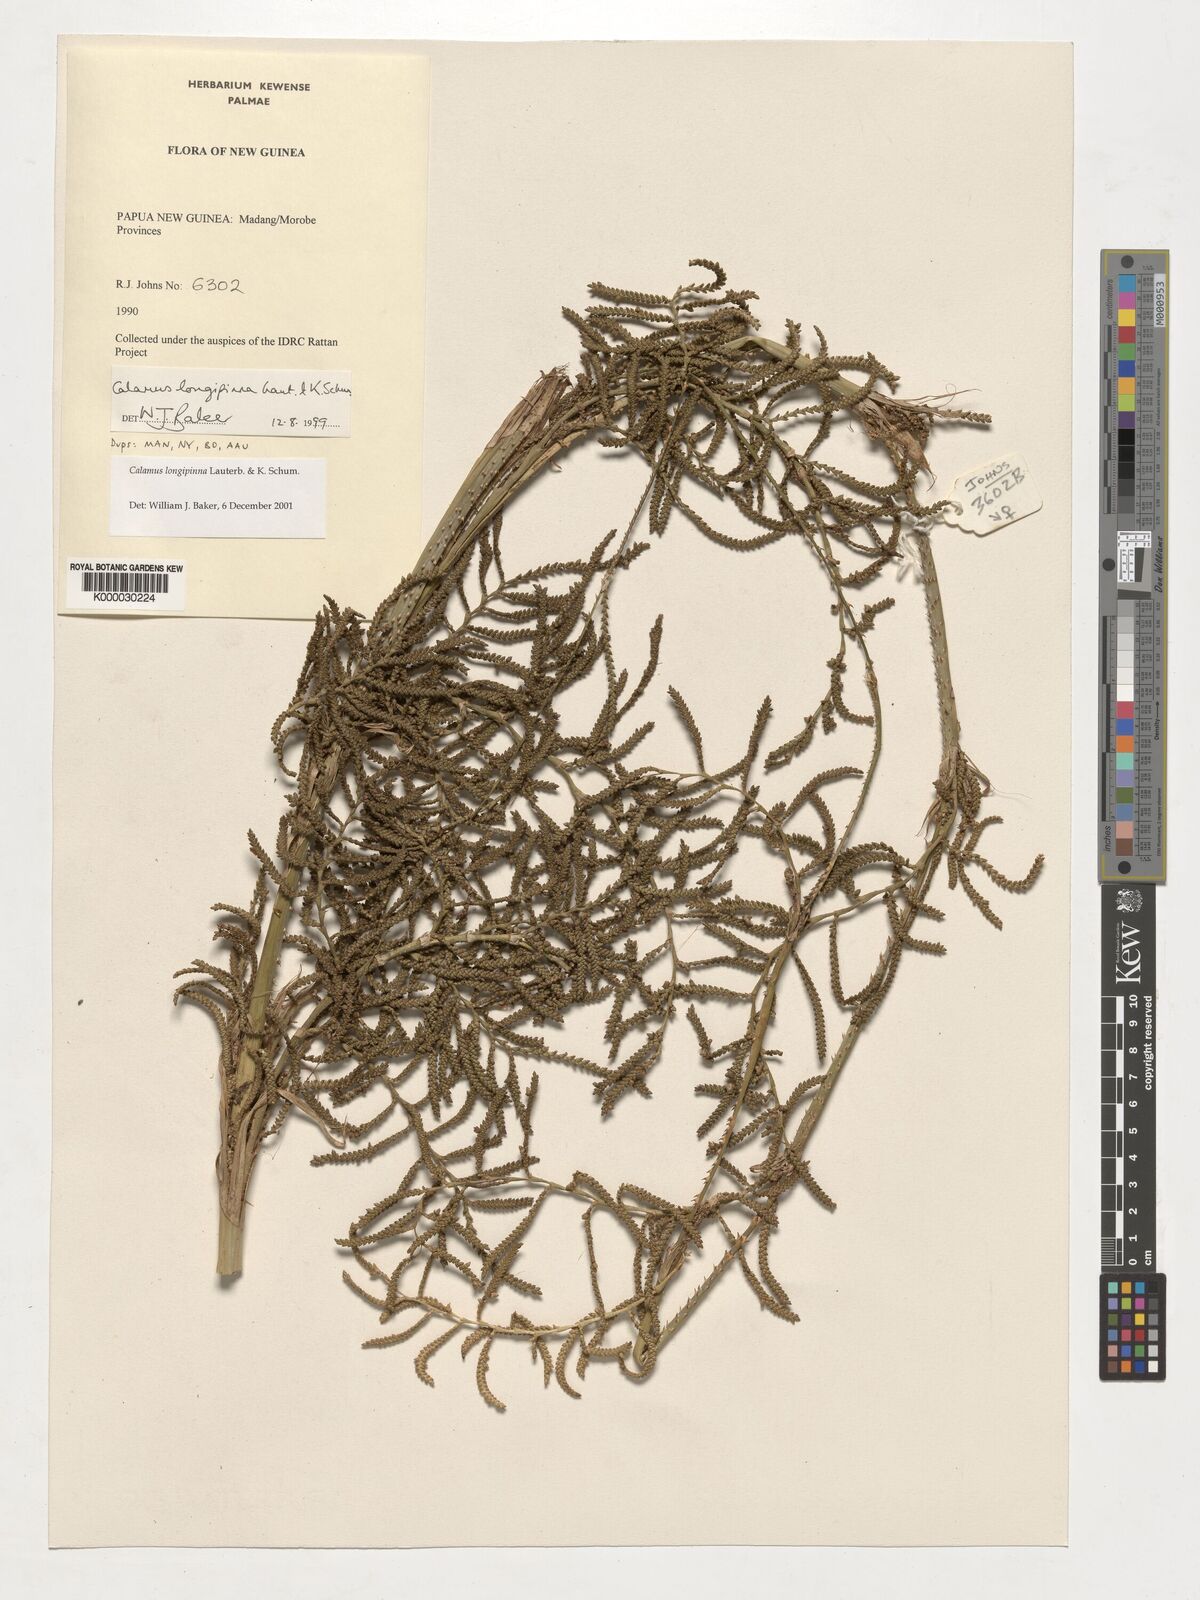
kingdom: Plantae
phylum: Tracheophyta
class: Liliopsida
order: Arecales
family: Arecaceae
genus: Calamus
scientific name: Calamus longipinna
